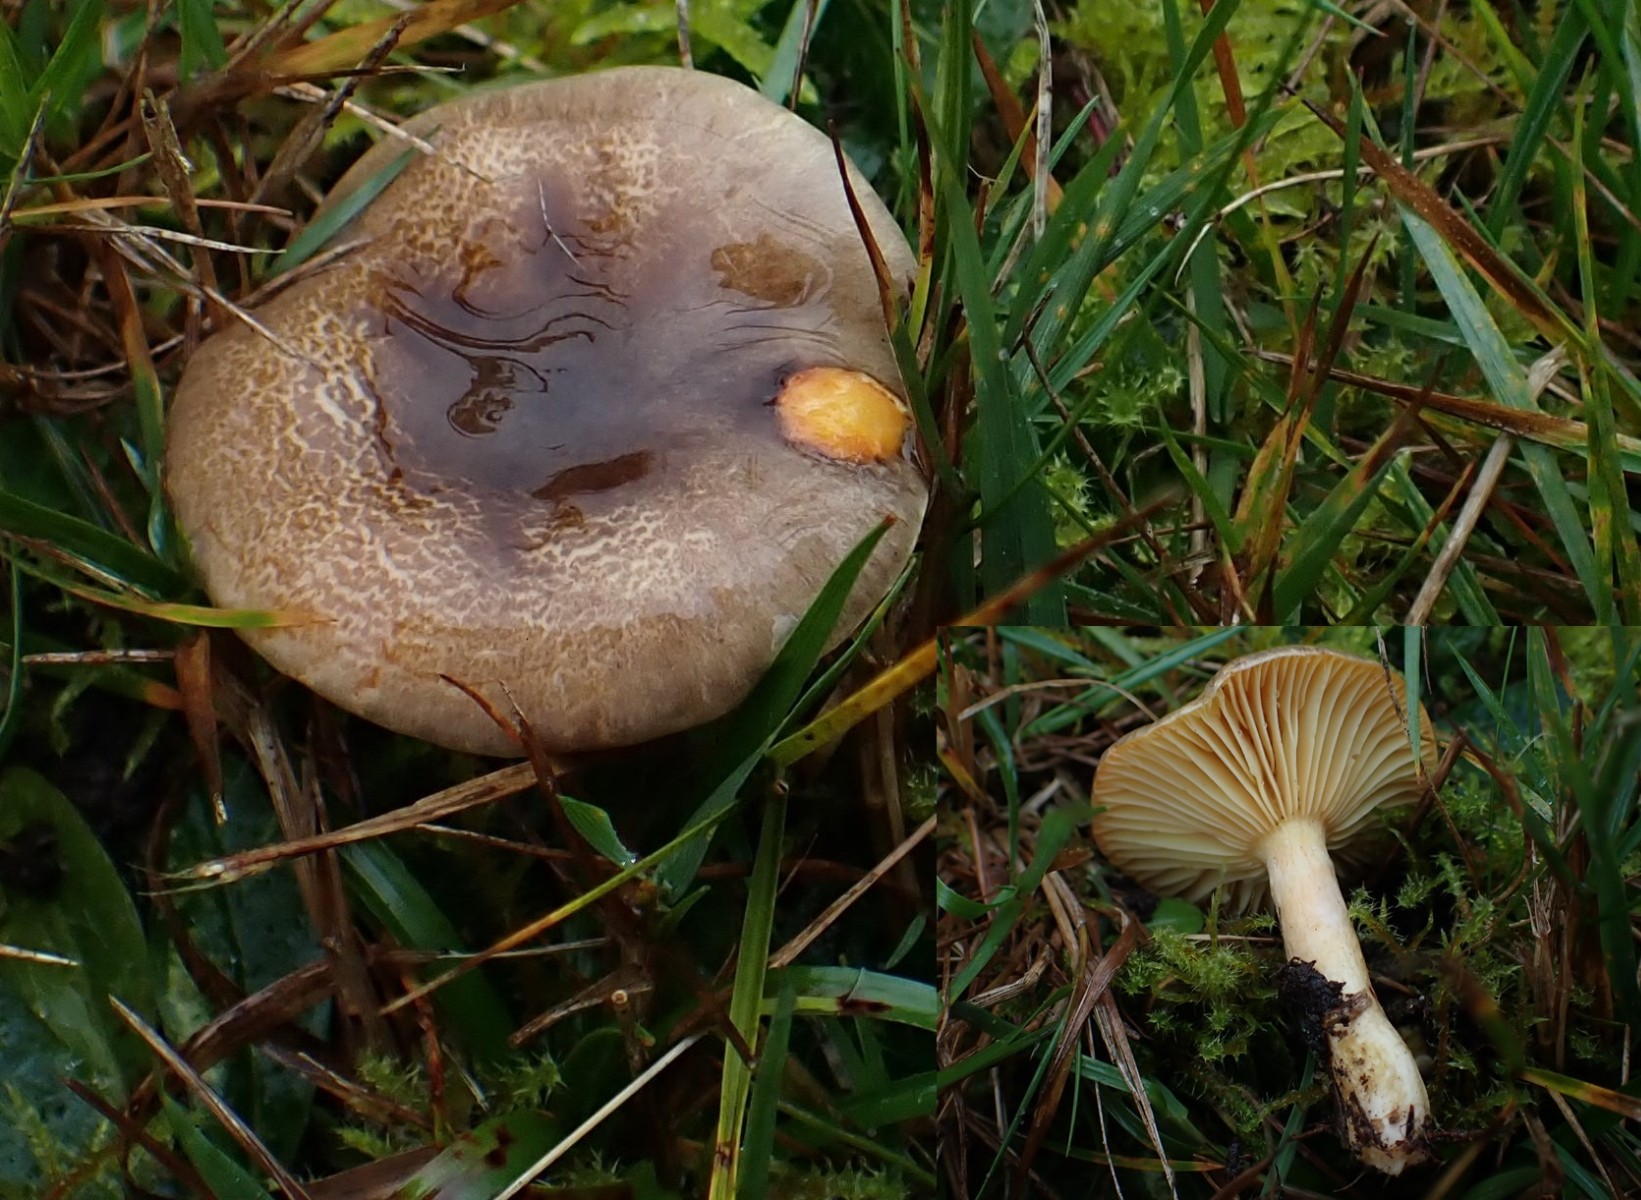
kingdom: Fungi
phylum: Basidiomycota
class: Agaricomycetes
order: Agaricales
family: Hygrophoraceae
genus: Hygrophorus
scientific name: Hygrophorus hypothejus
